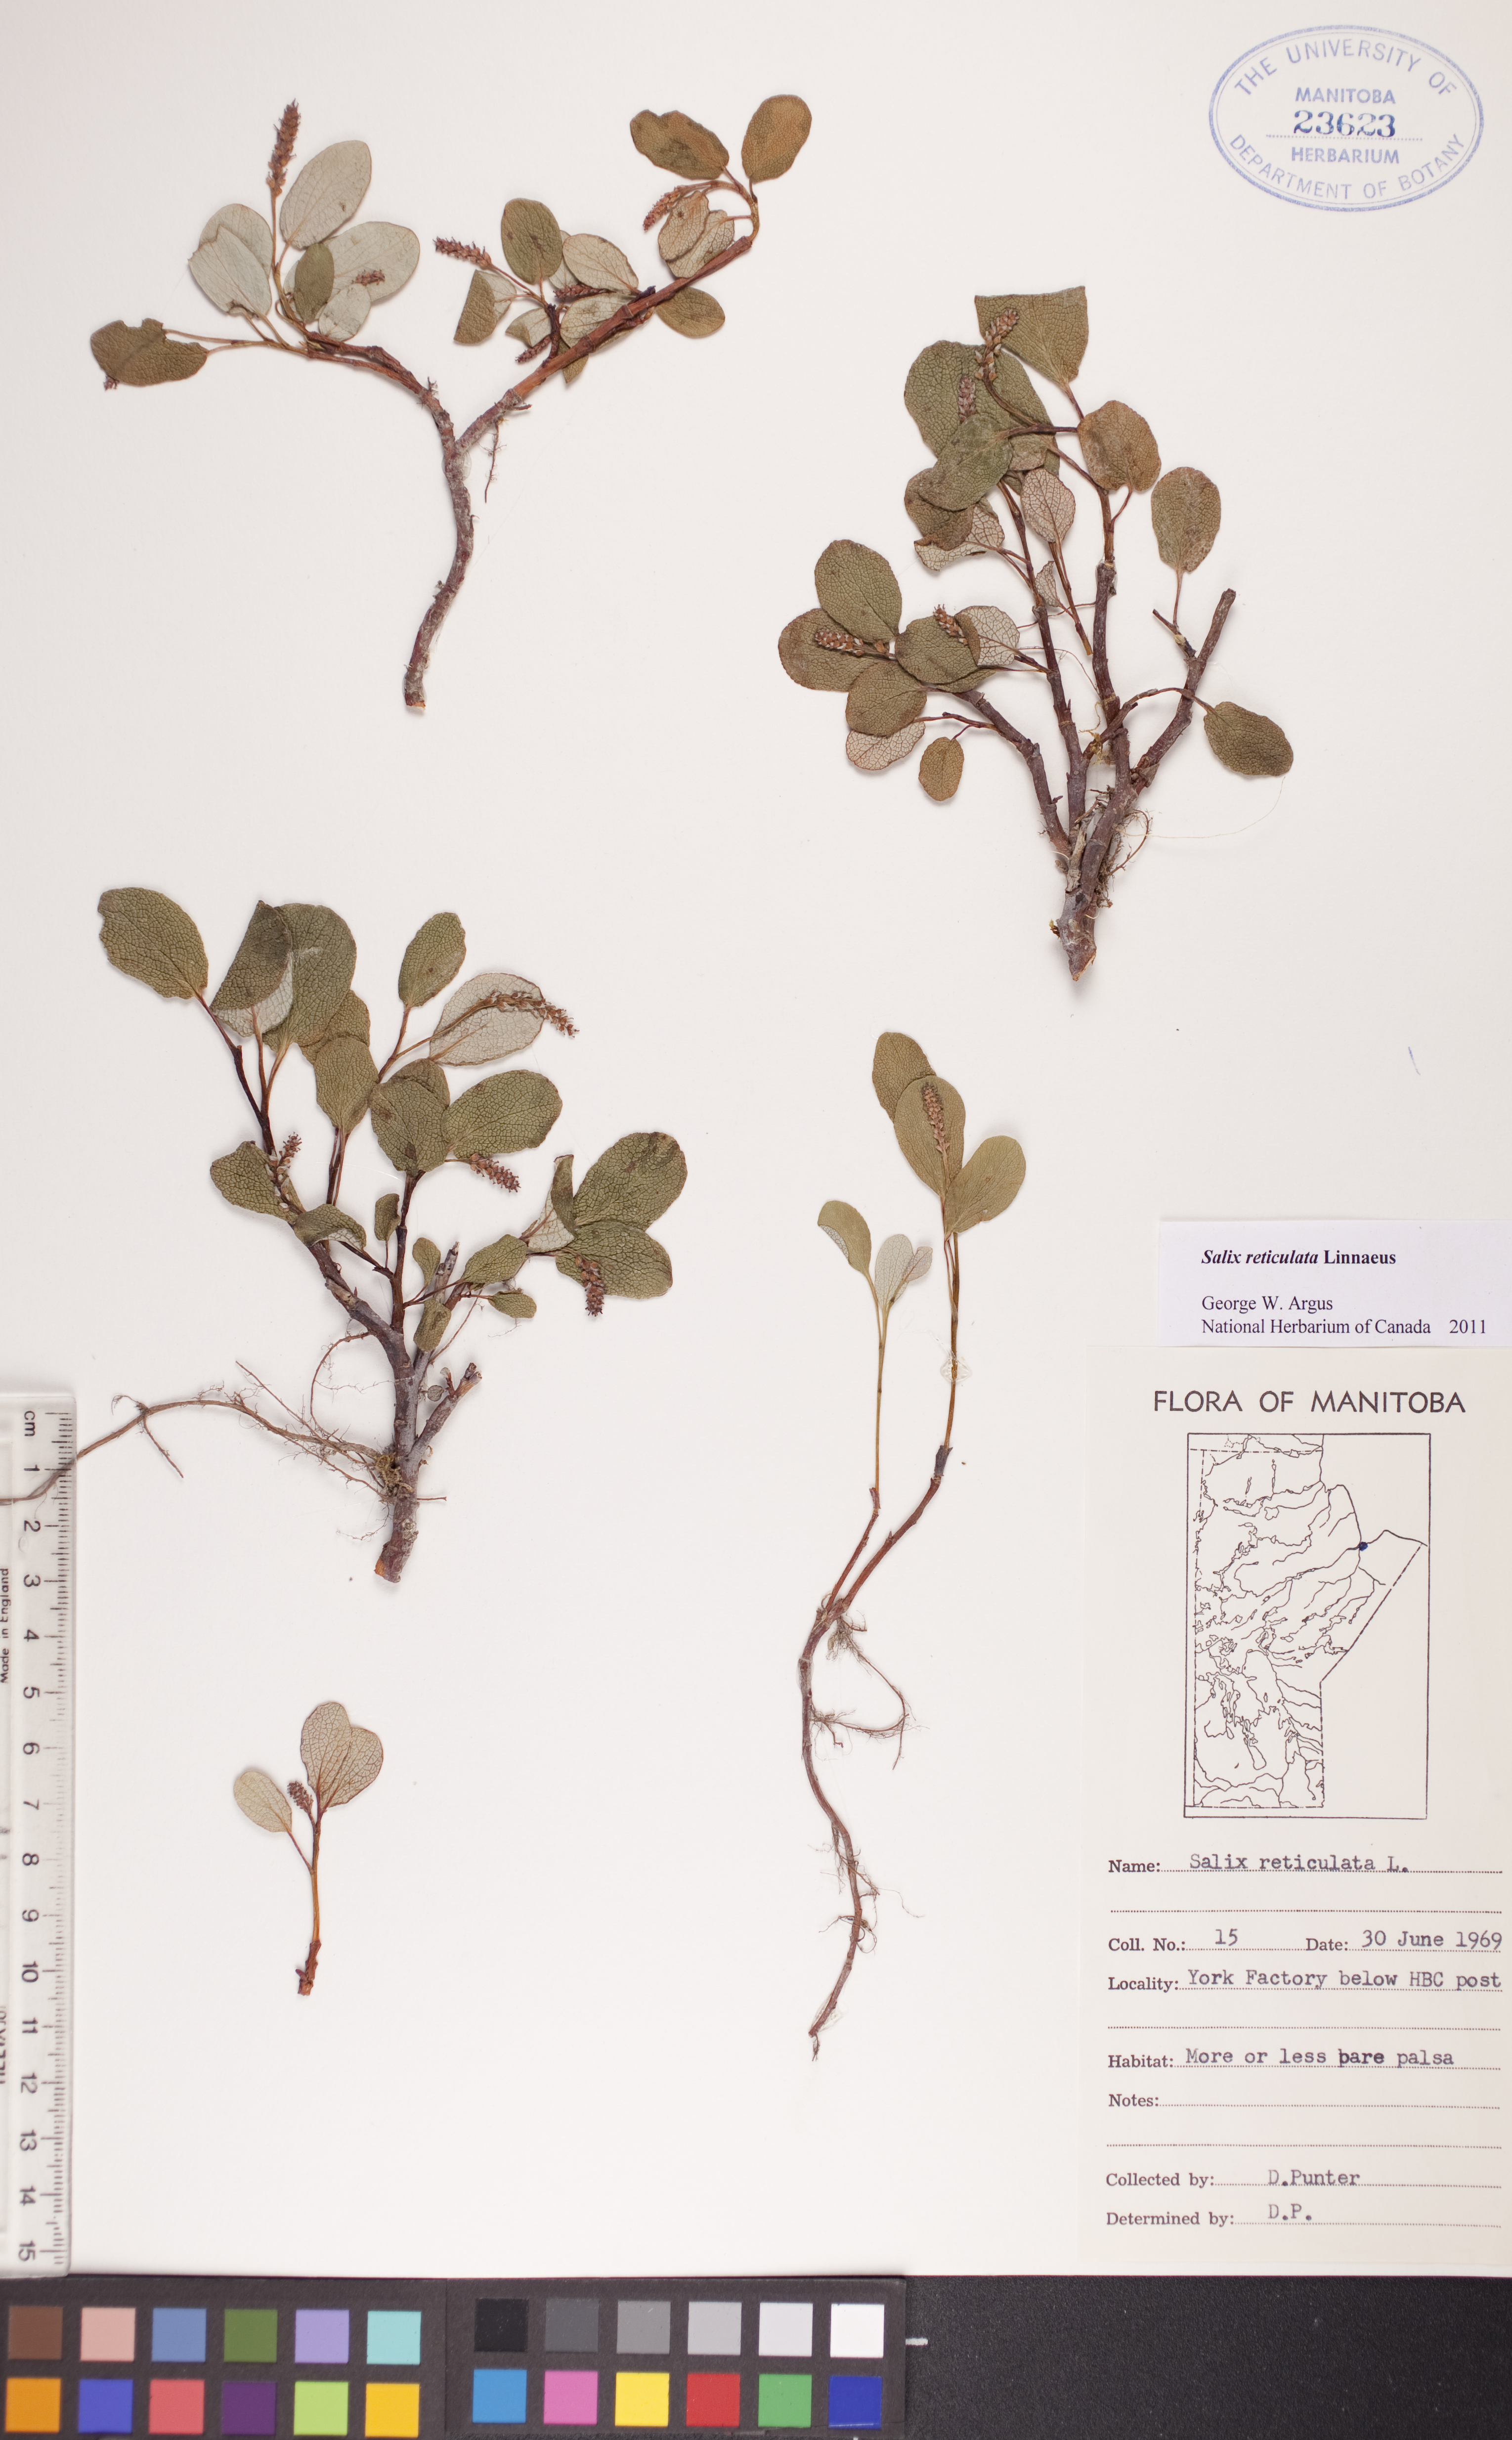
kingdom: Plantae
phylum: Tracheophyta
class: Magnoliopsida
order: Malpighiales
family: Salicaceae
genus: Salix
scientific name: Salix reticulata
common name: Net-leaved willow
